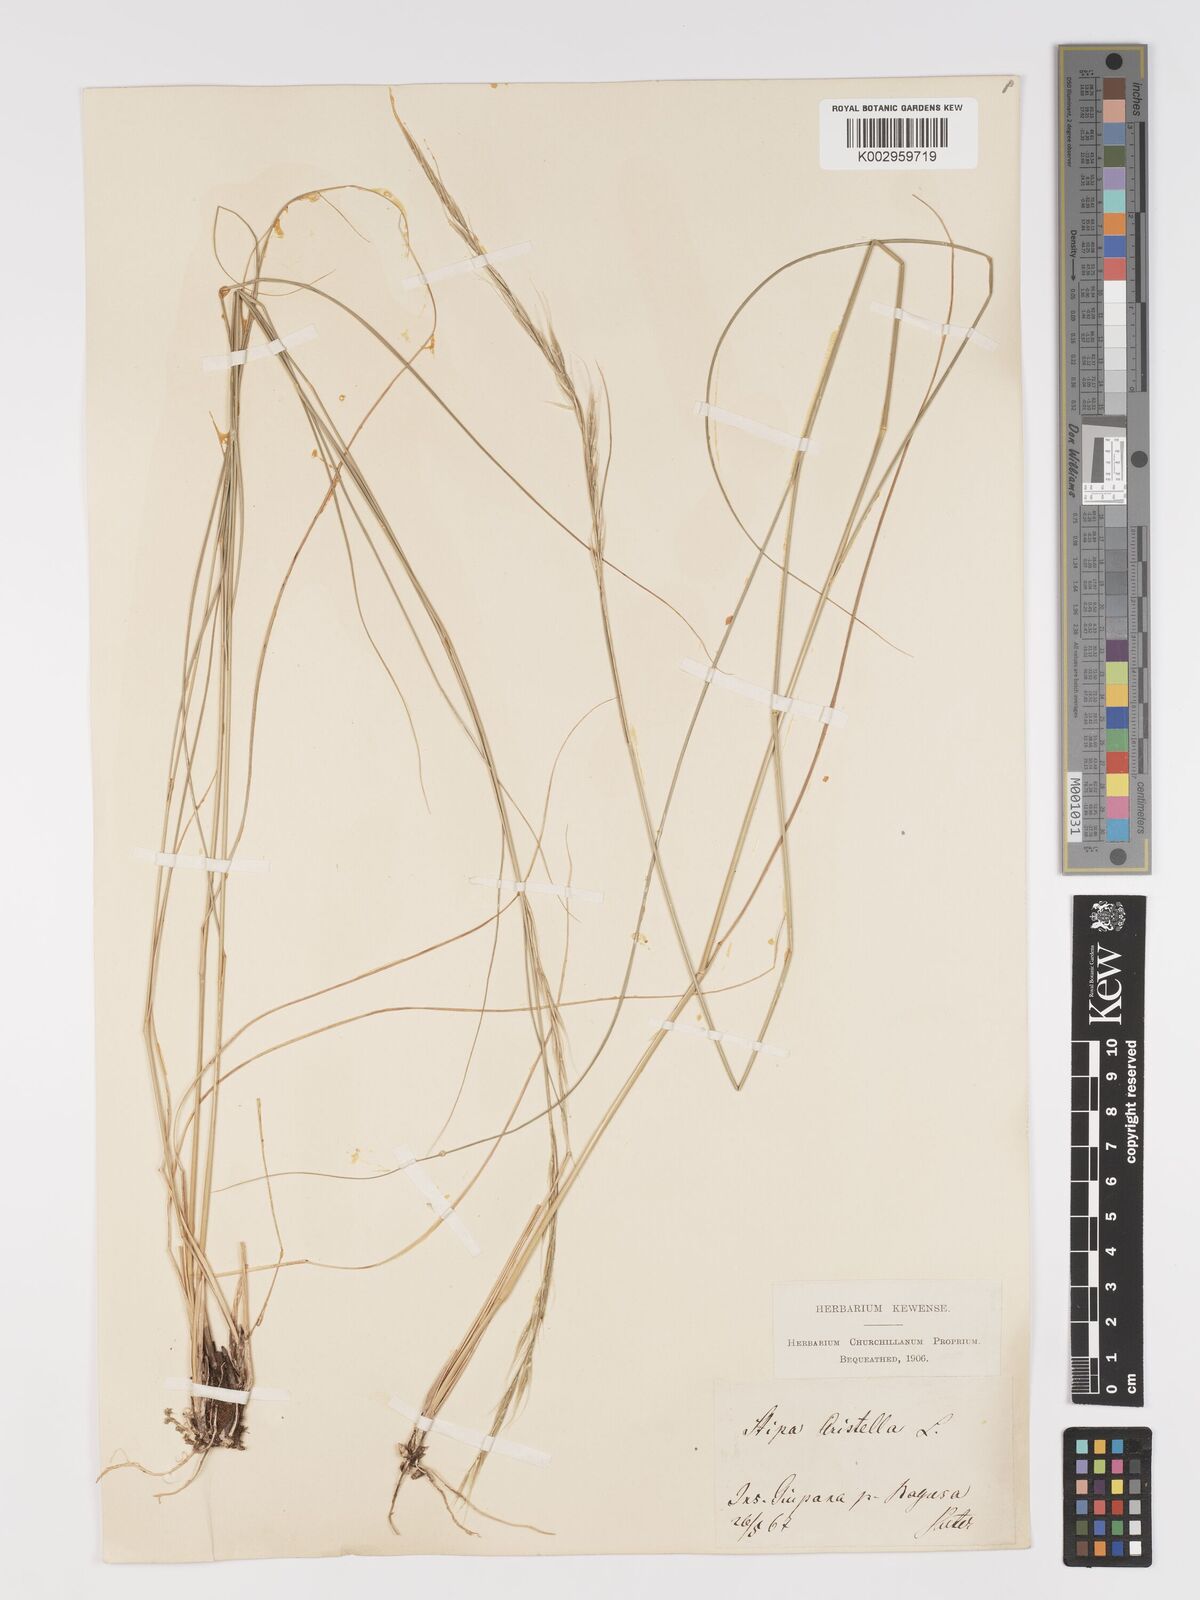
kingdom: Plantae
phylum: Tracheophyta
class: Liliopsida
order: Poales
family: Poaceae
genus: Achnatherum
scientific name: Achnatherum bromoides
